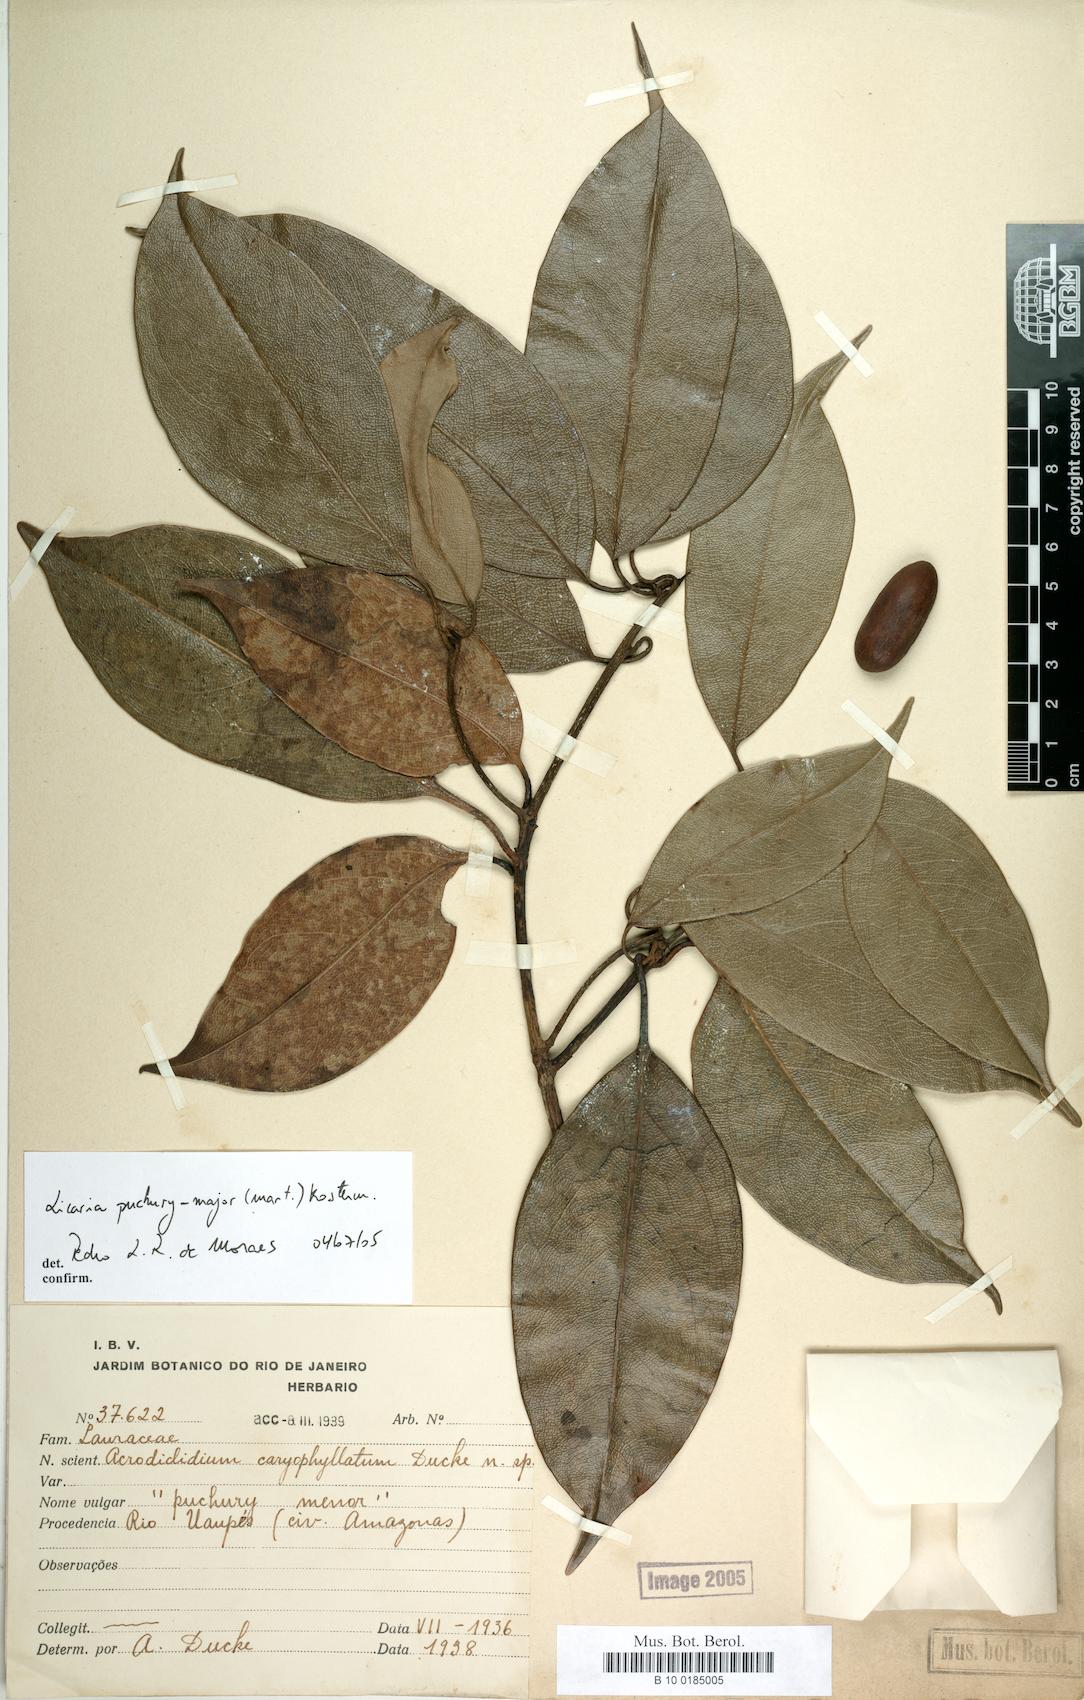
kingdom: Plantae
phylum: Tracheophyta
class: Magnoliopsida
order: Laurales
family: Lauraceae
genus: Aniba
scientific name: Aniba puchury-minor
